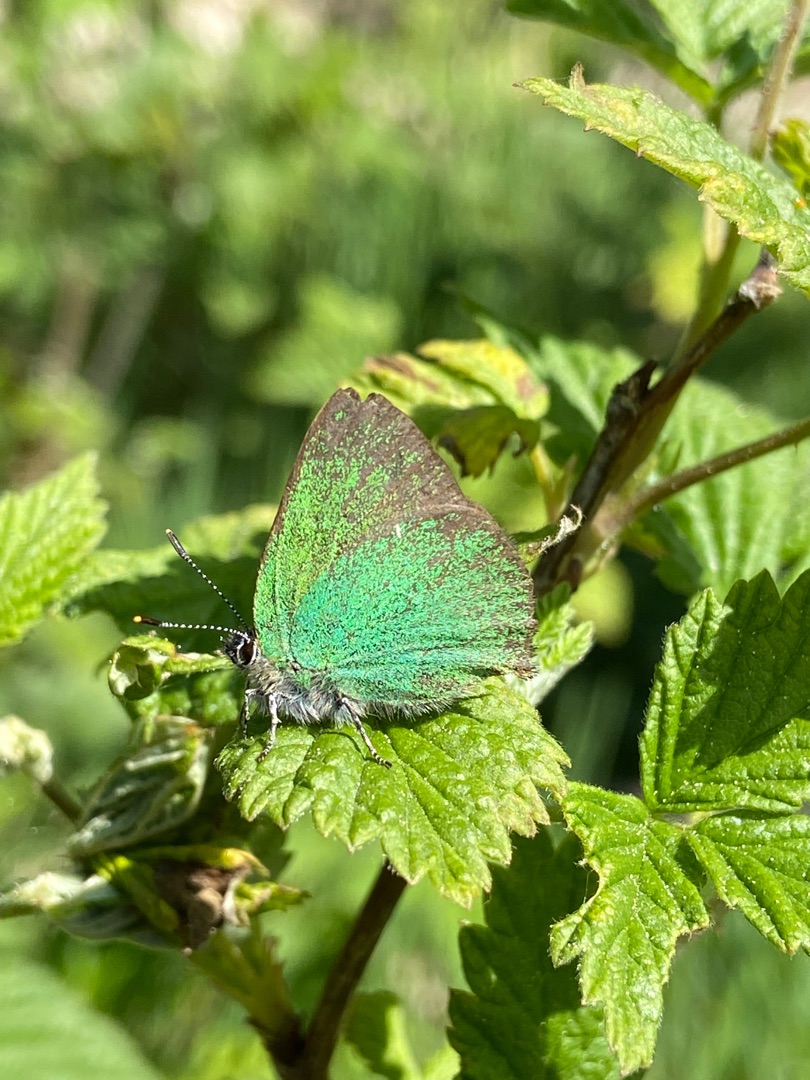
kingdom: Animalia
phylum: Arthropoda
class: Insecta
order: Lepidoptera
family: Lycaenidae
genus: Callophrys
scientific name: Callophrys rubi
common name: Grøn busksommerfugl
